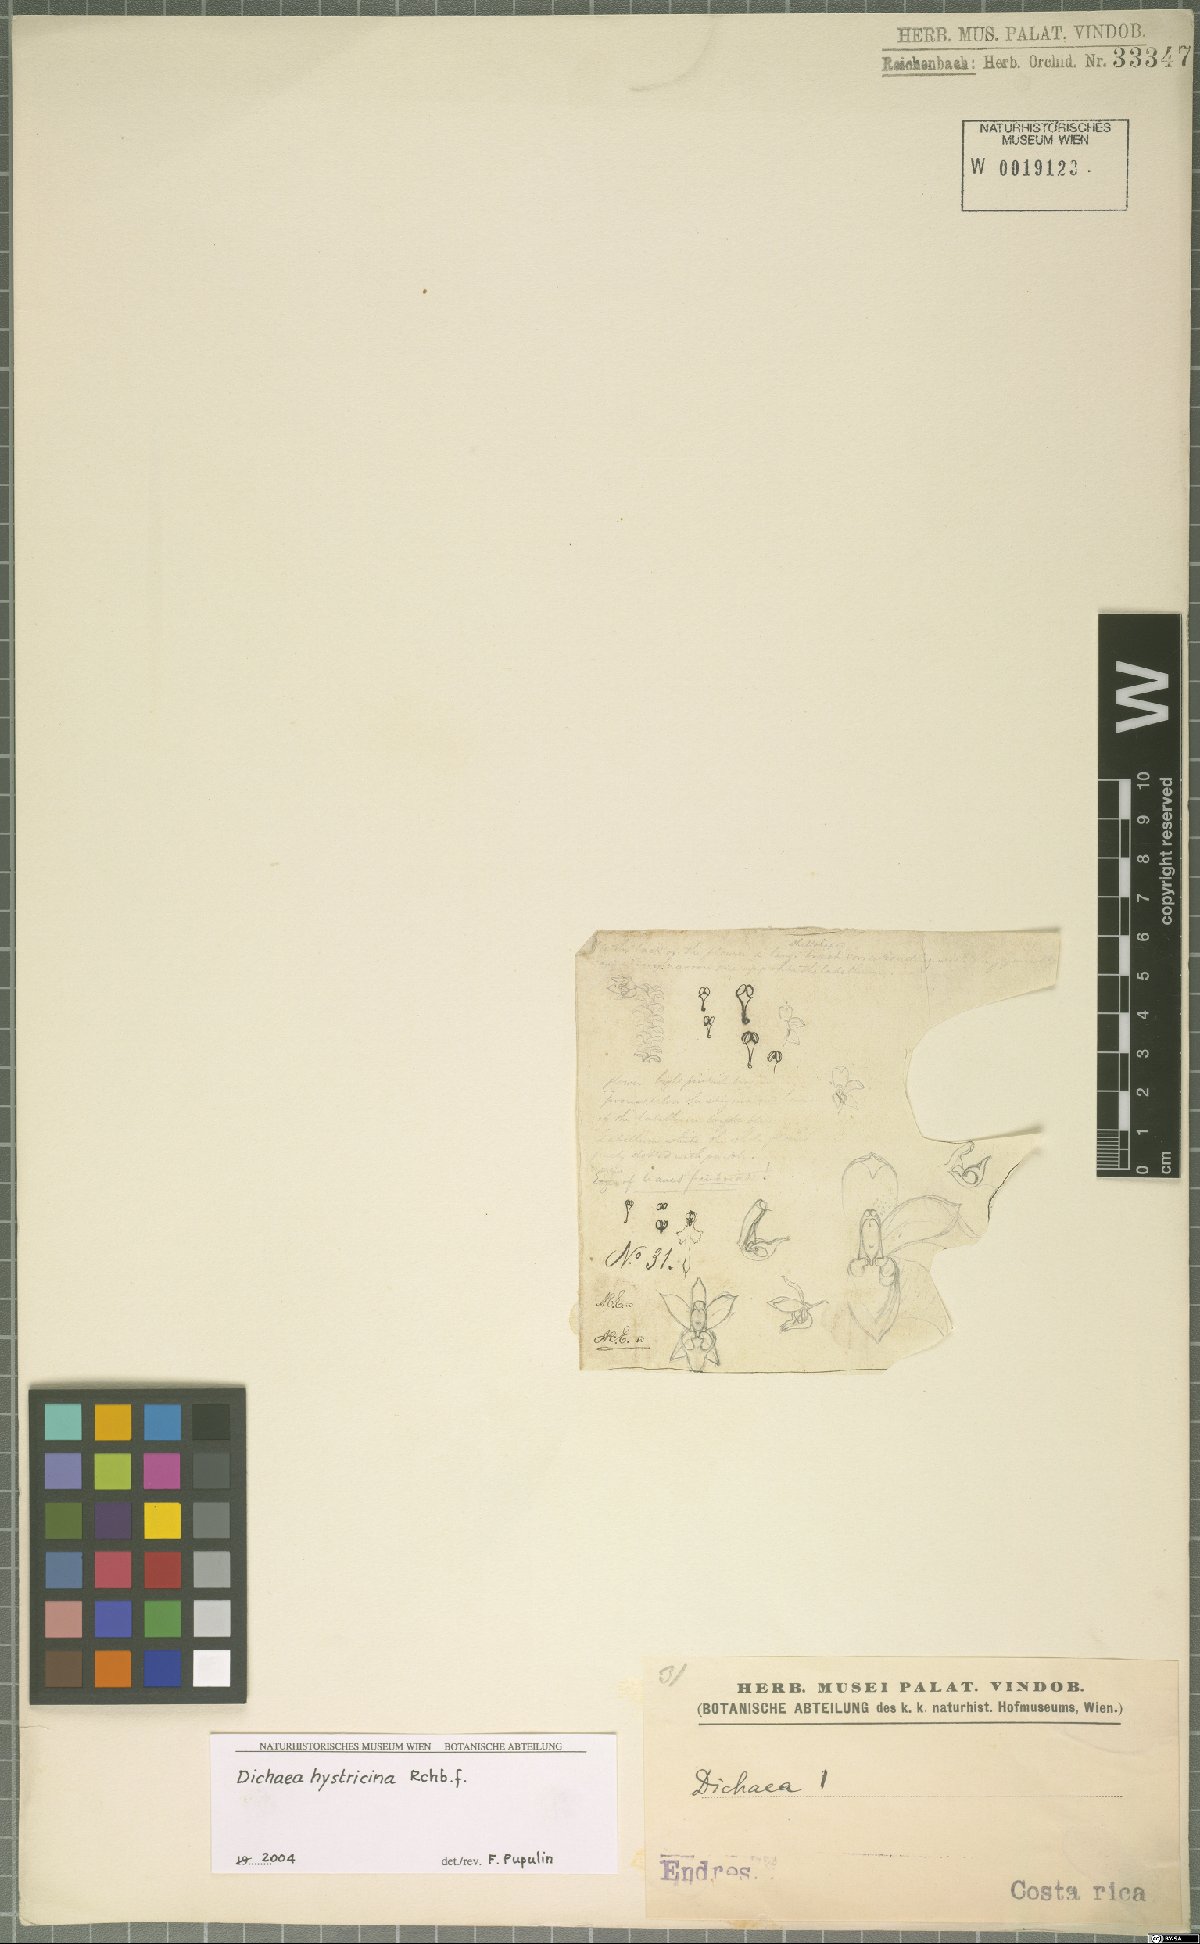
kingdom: Plantae
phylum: Tracheophyta
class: Liliopsida
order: Asparagales
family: Orchidaceae
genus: Dichaea
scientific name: Dichaea hystricina
